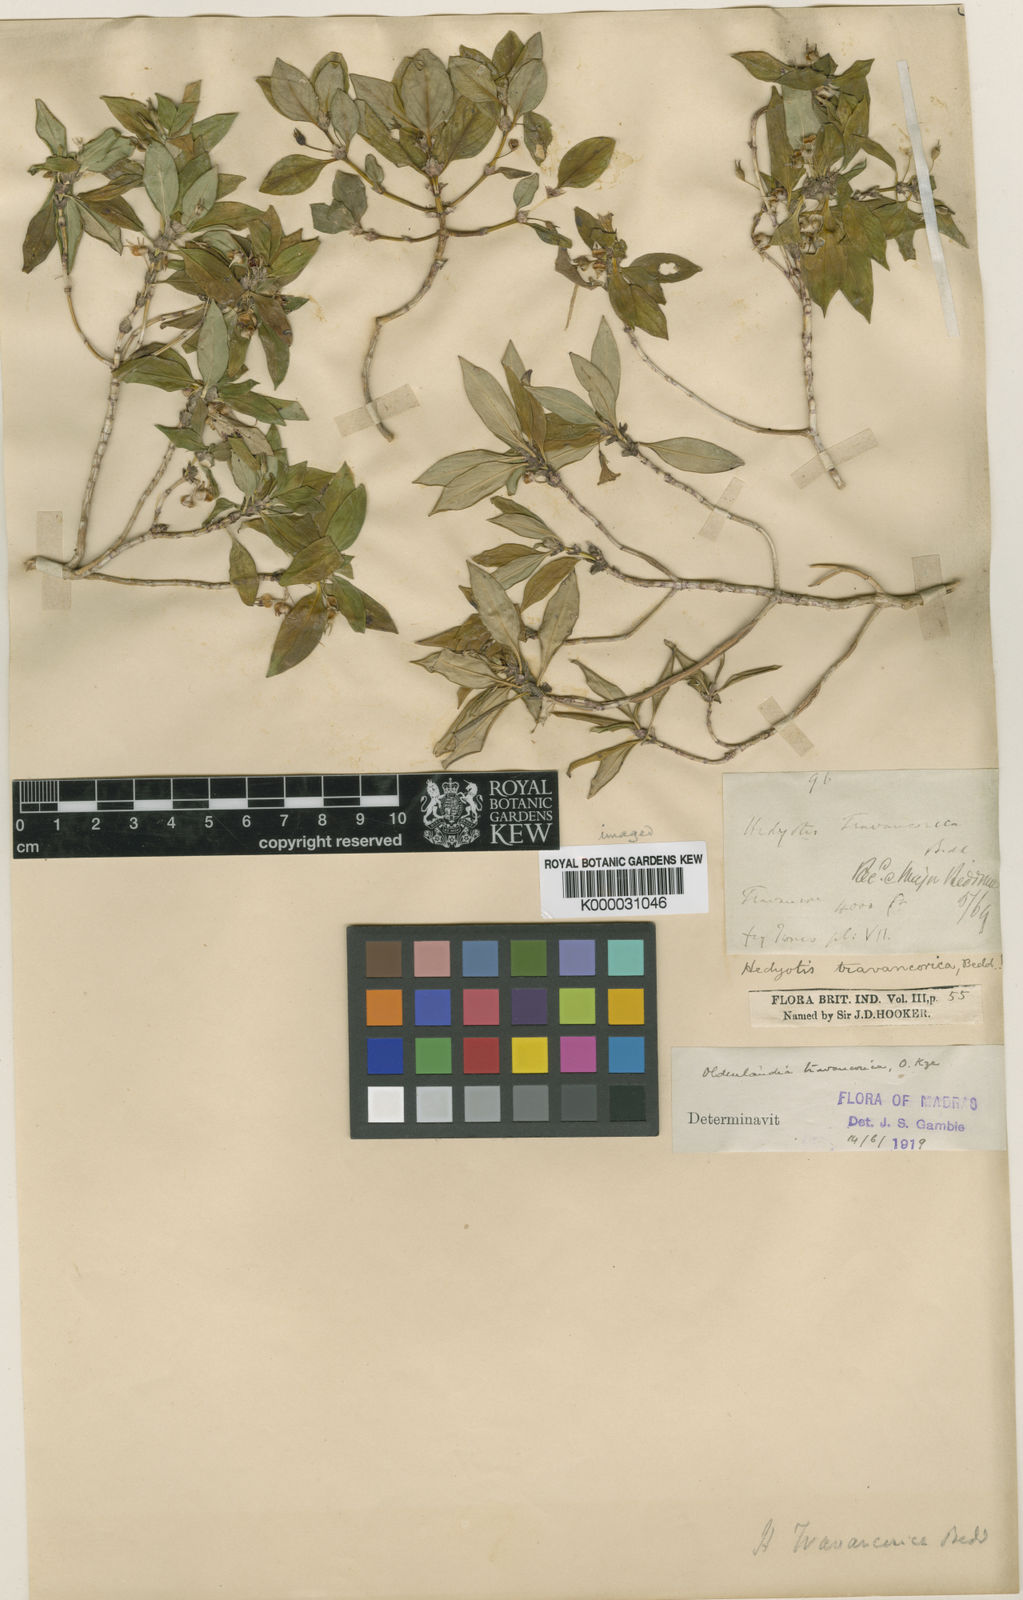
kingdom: Plantae
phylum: Tracheophyta
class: Magnoliopsida
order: Gentianales
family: Rubiaceae
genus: Hedyotis
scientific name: Hedyotis travancorica
